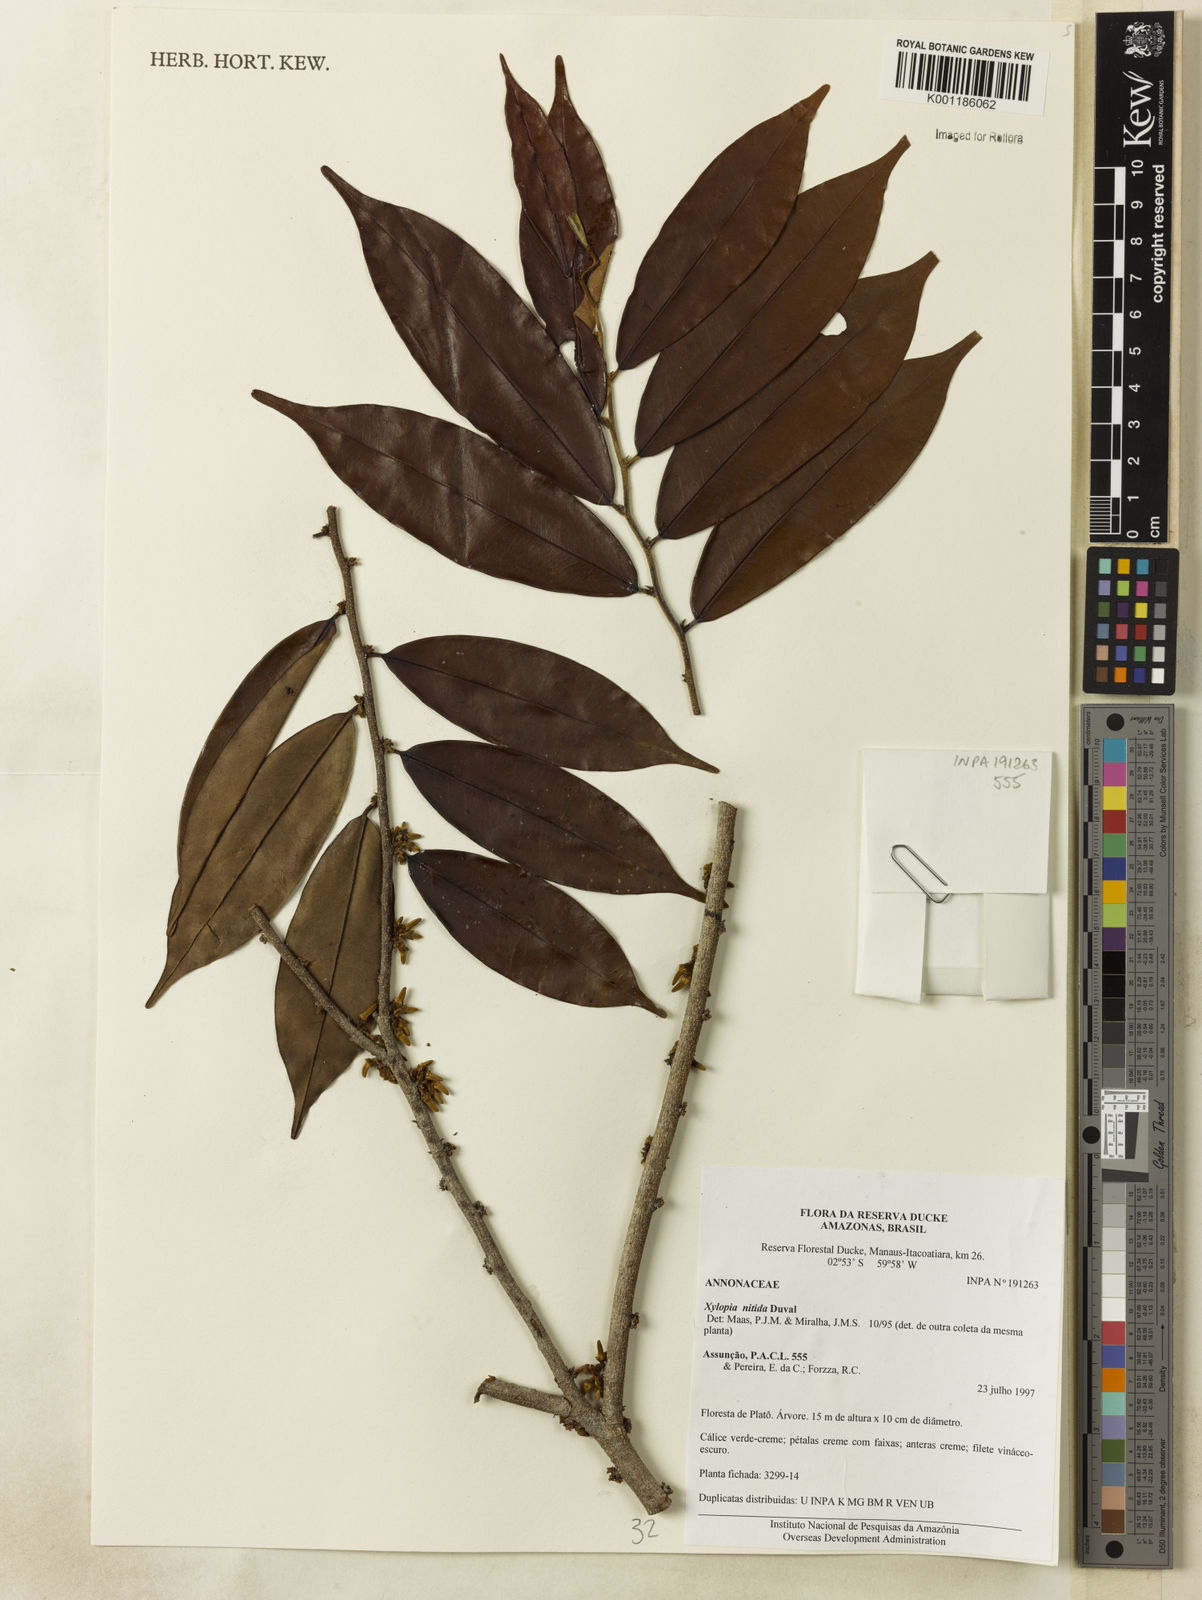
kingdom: Plantae
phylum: Tracheophyta
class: Magnoliopsida
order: Magnoliales
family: Annonaceae
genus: Xylopia
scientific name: Xylopia nitida
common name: White kuyama
